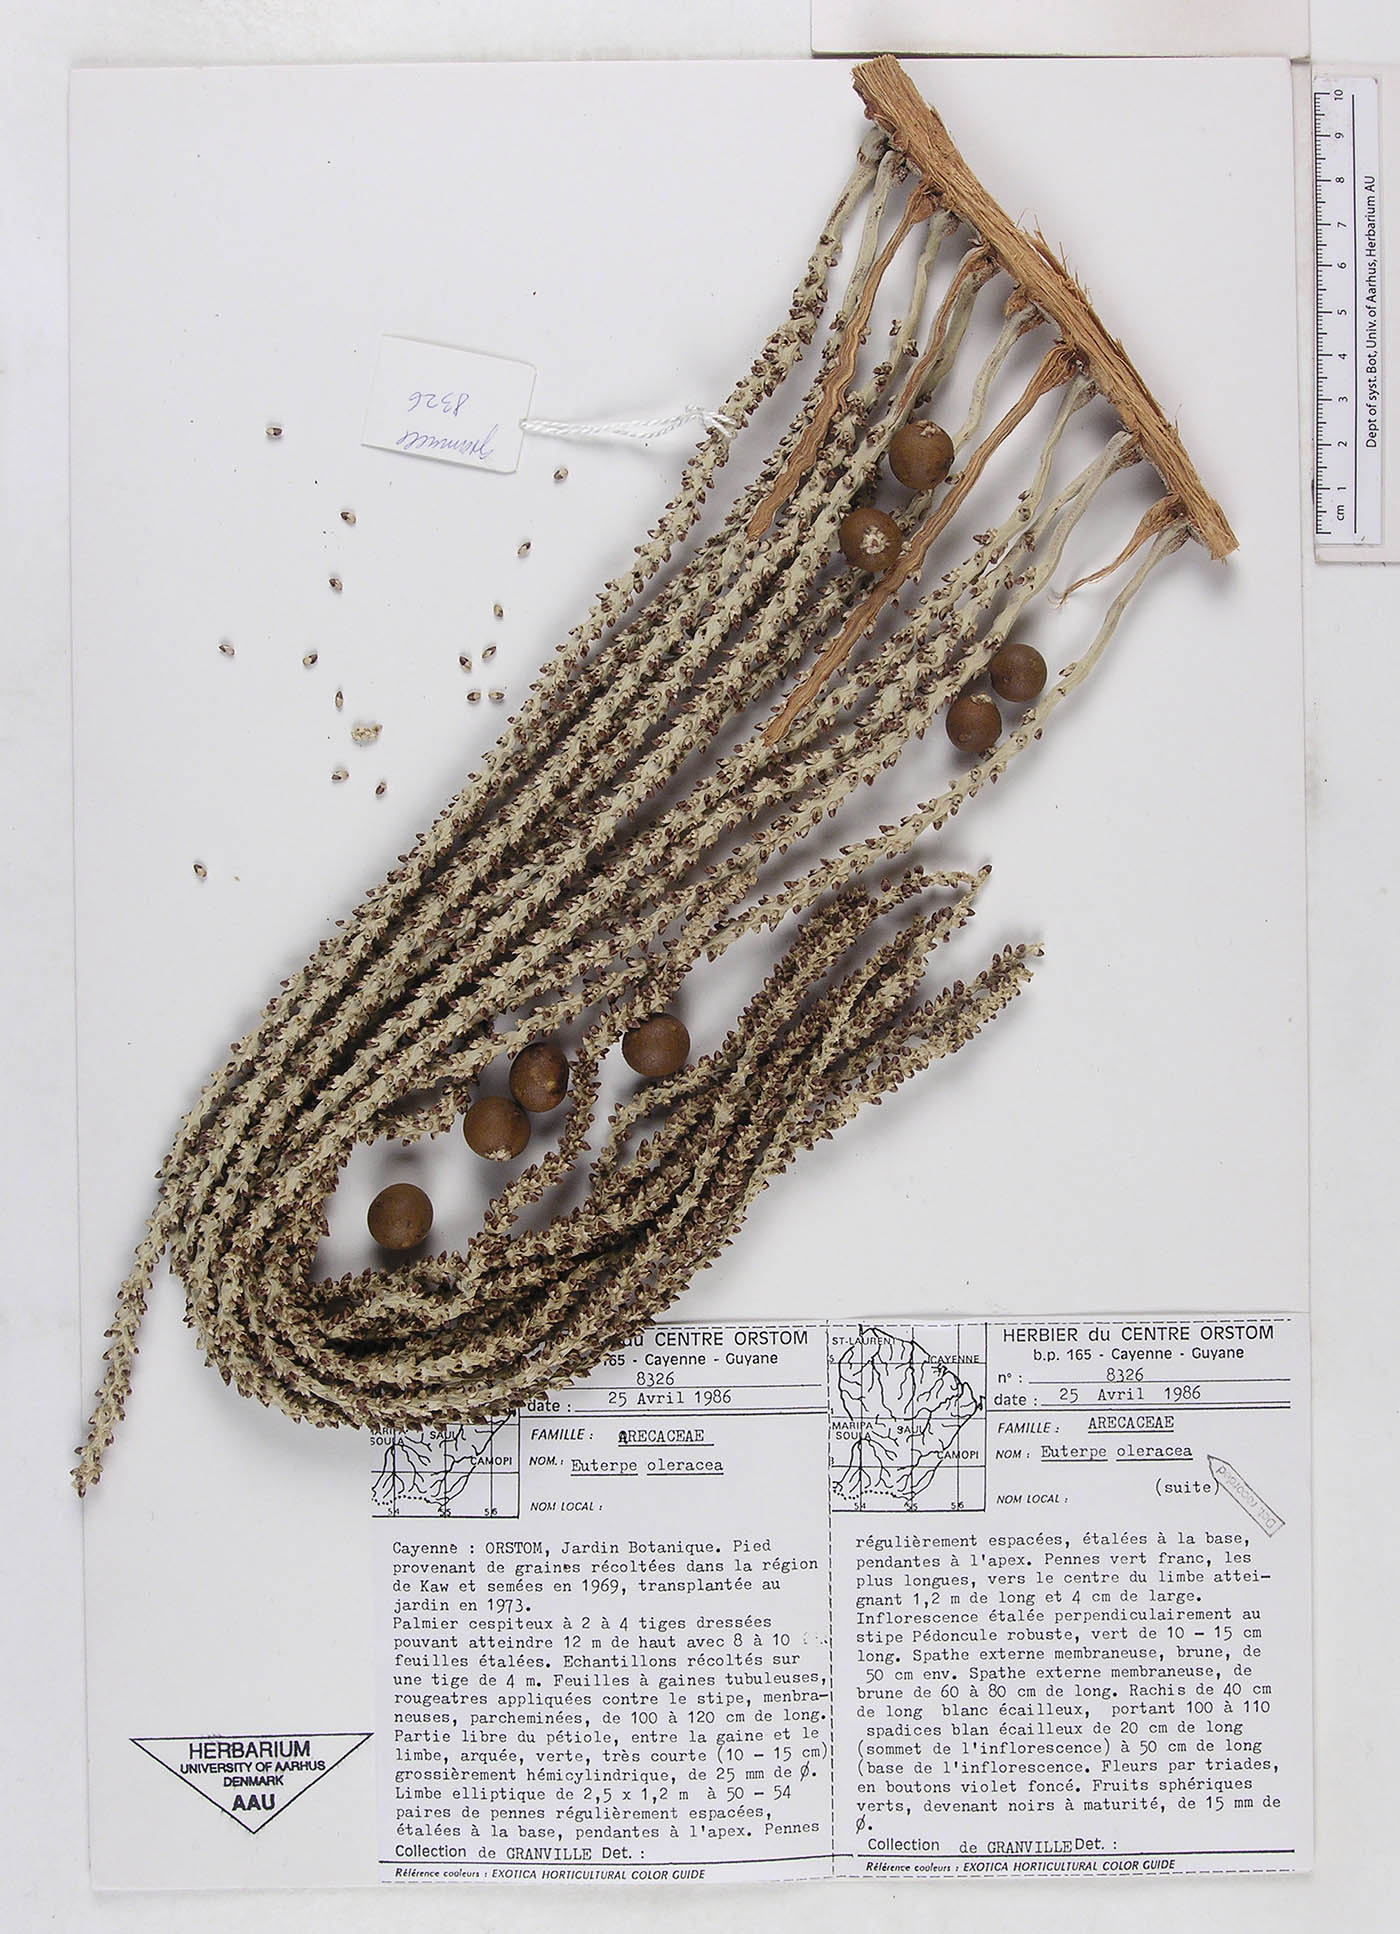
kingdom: Plantae
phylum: Tracheophyta
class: Liliopsida
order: Arecales
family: Arecaceae
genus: Euterpe
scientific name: Euterpe oleracea
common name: Assai palm
